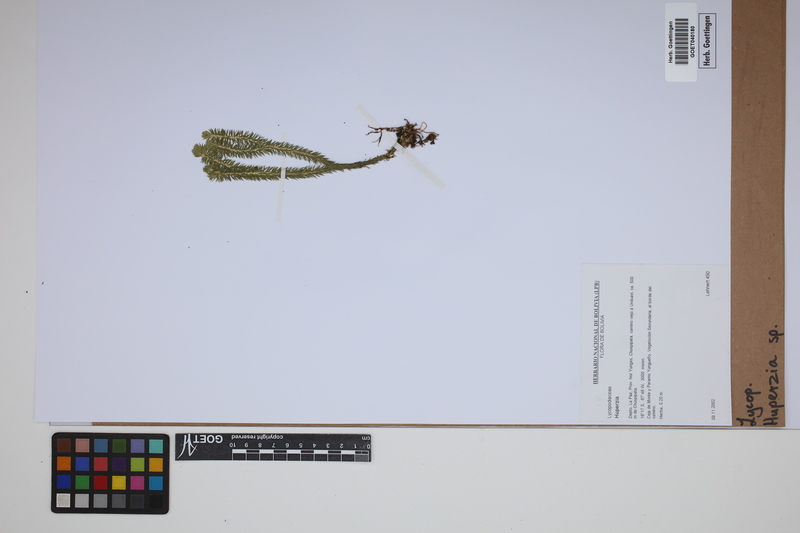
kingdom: Plantae
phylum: Tracheophyta
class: Lycopodiopsida
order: Lycopodiales
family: Lycopodiaceae
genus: Phlegmariurus
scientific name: Phlegmariurus
